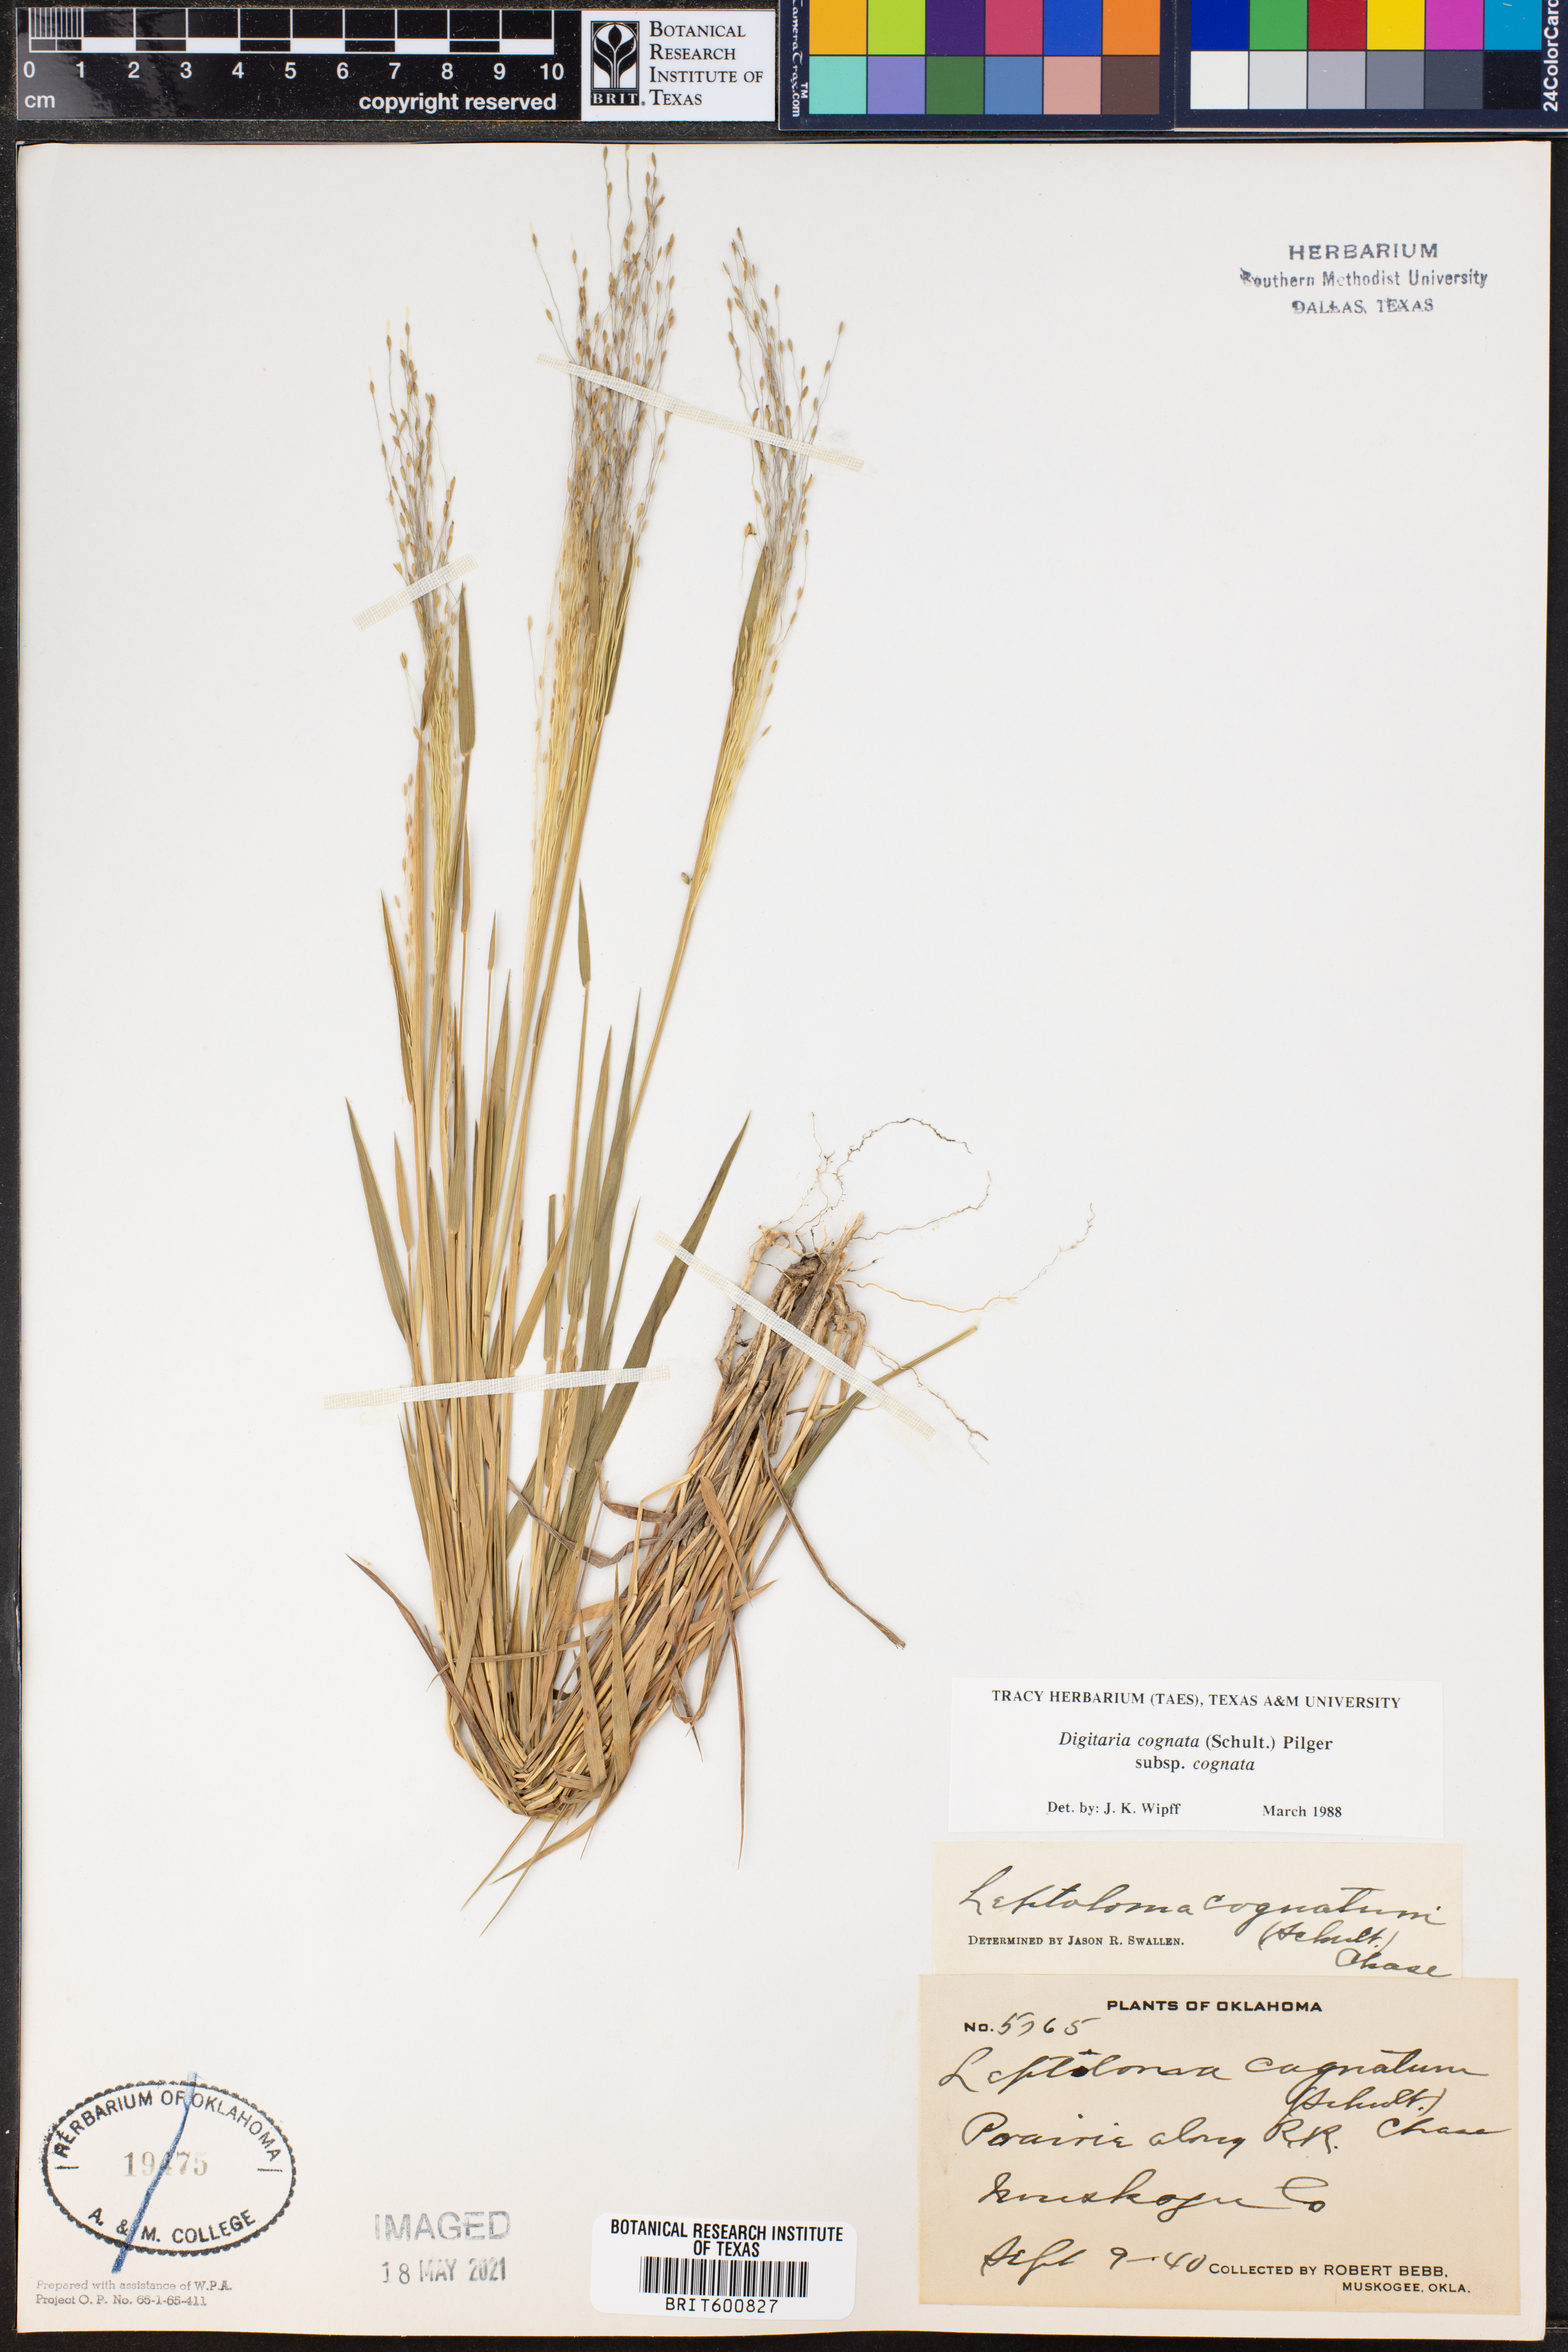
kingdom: Plantae
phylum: Tracheophyta
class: Liliopsida
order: Poales
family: Poaceae
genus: Digitaria
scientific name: Digitaria cognata
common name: Fall witchgrass
